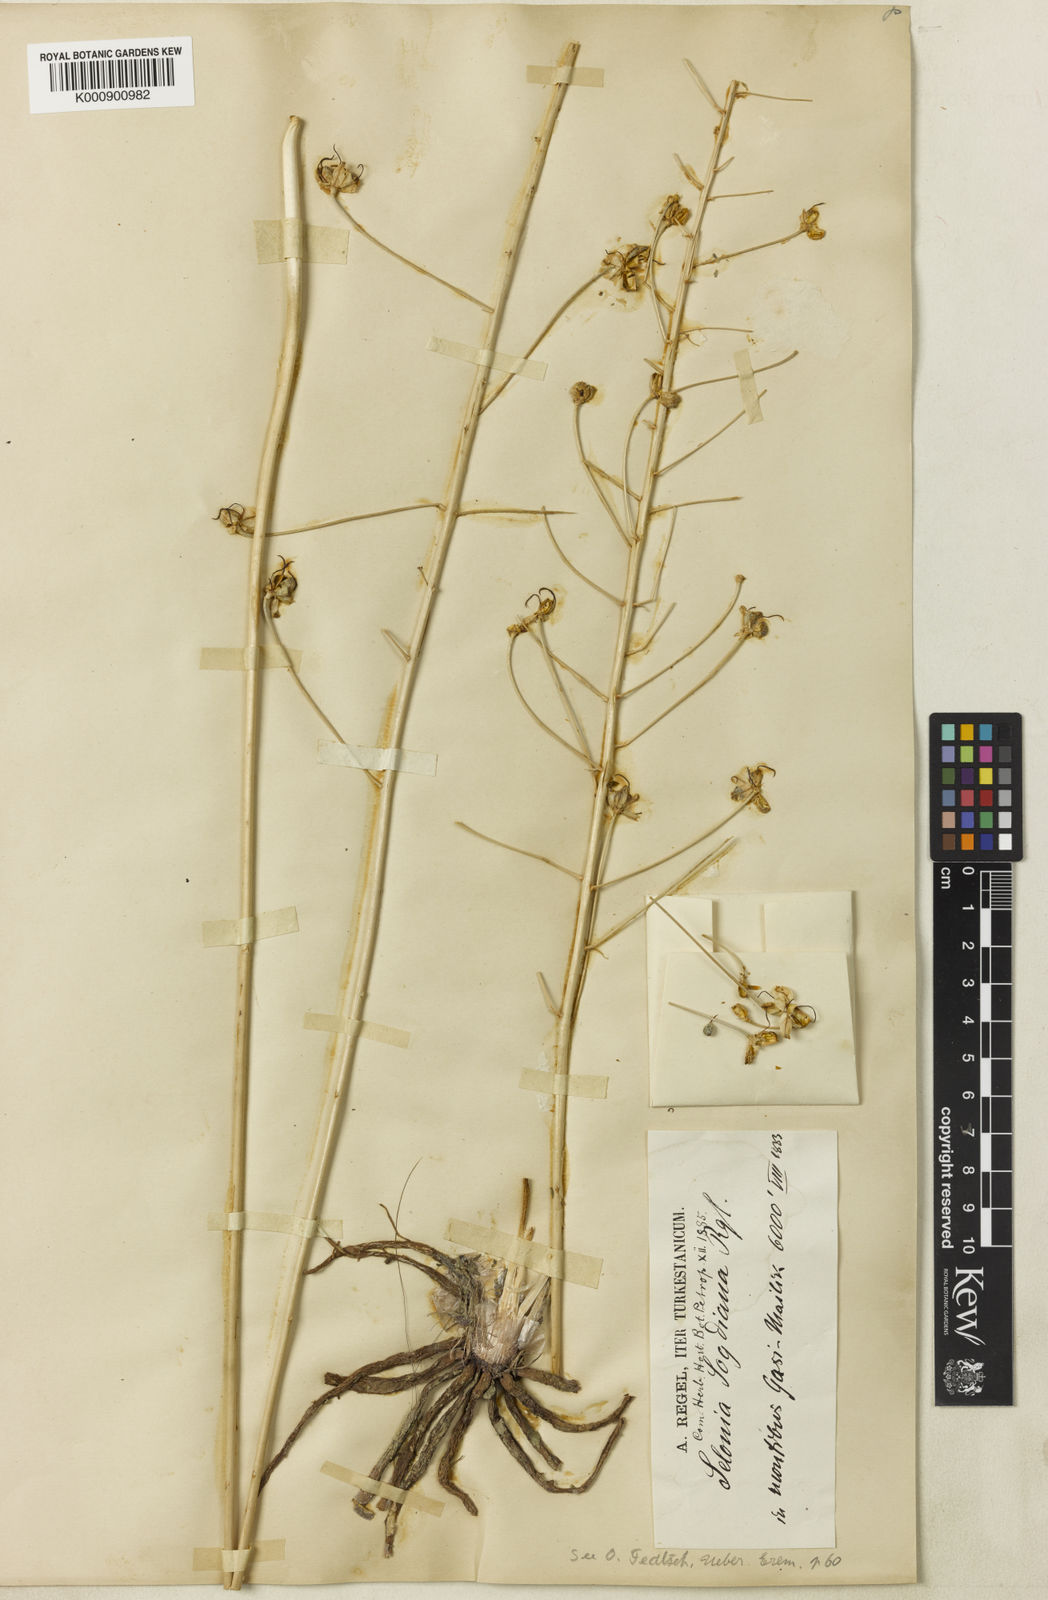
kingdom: Plantae
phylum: Tracheophyta
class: Liliopsida
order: Asparagales
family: Asphodelaceae
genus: Eremurus
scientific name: Eremurus soogdianus
